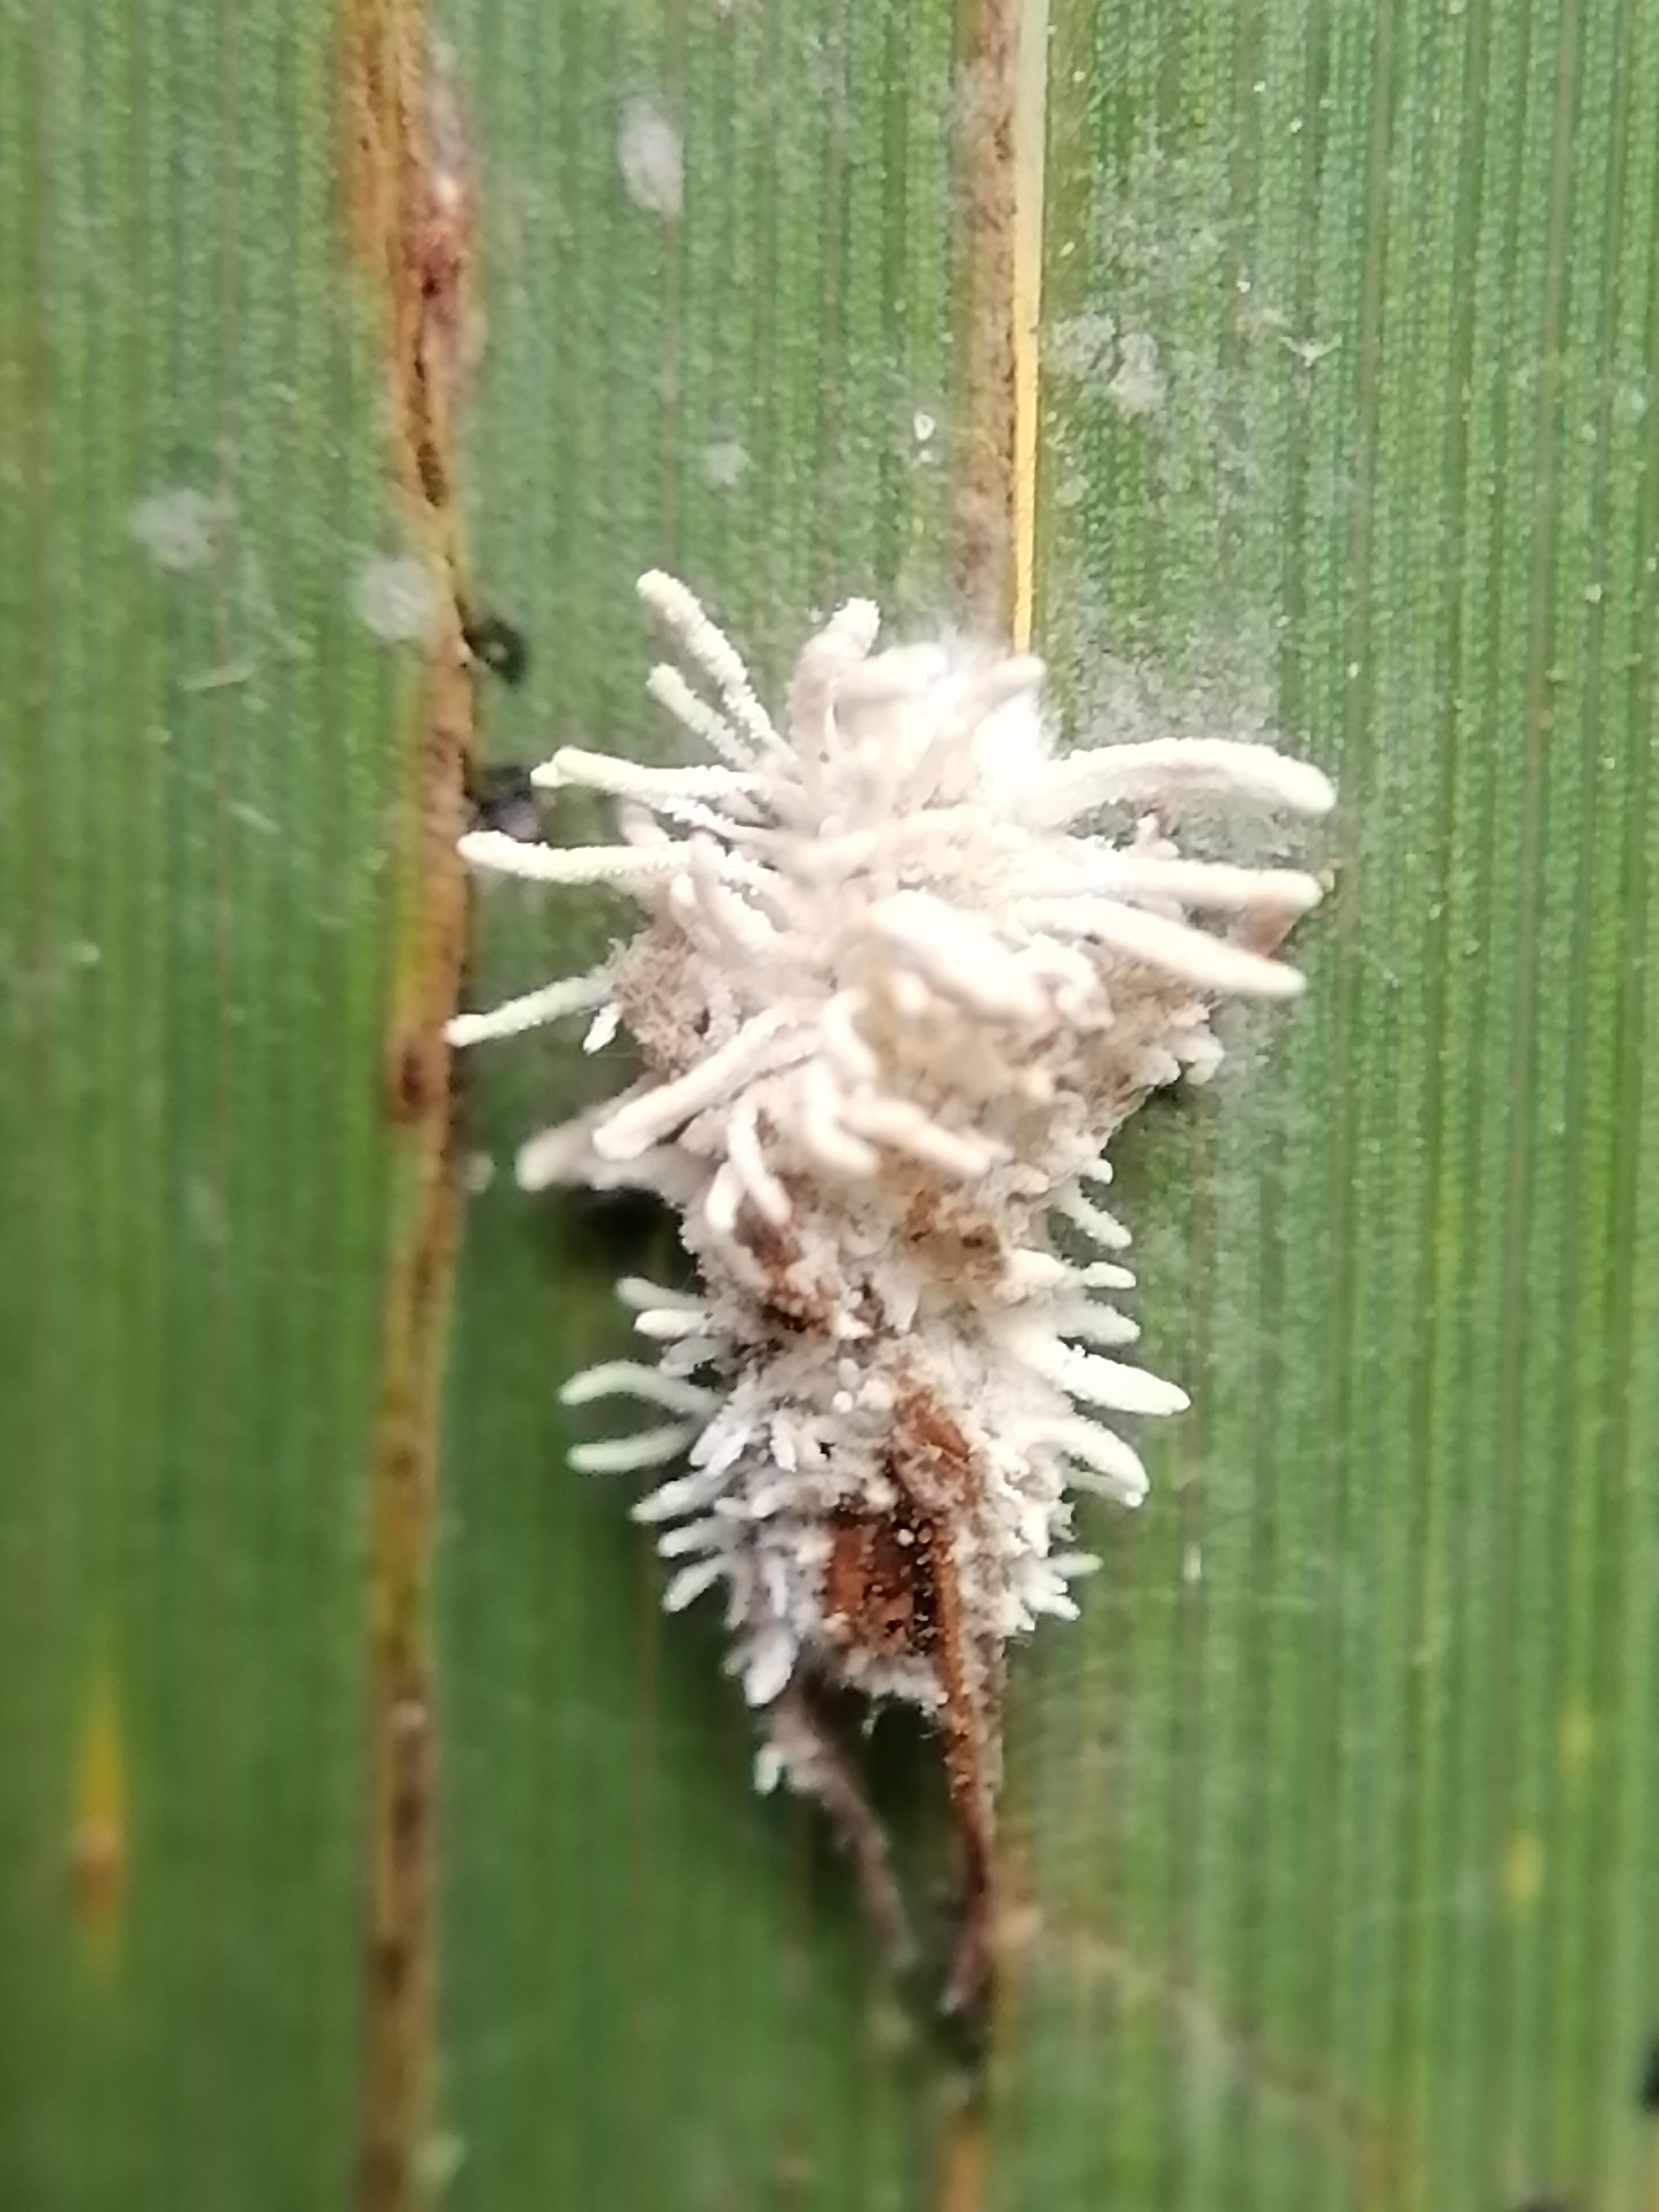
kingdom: Fungi
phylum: Ascomycota
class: Sordariomycetes
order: Hypocreales
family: Cordycipitaceae
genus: Gibellula
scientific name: Gibellula pulchra
